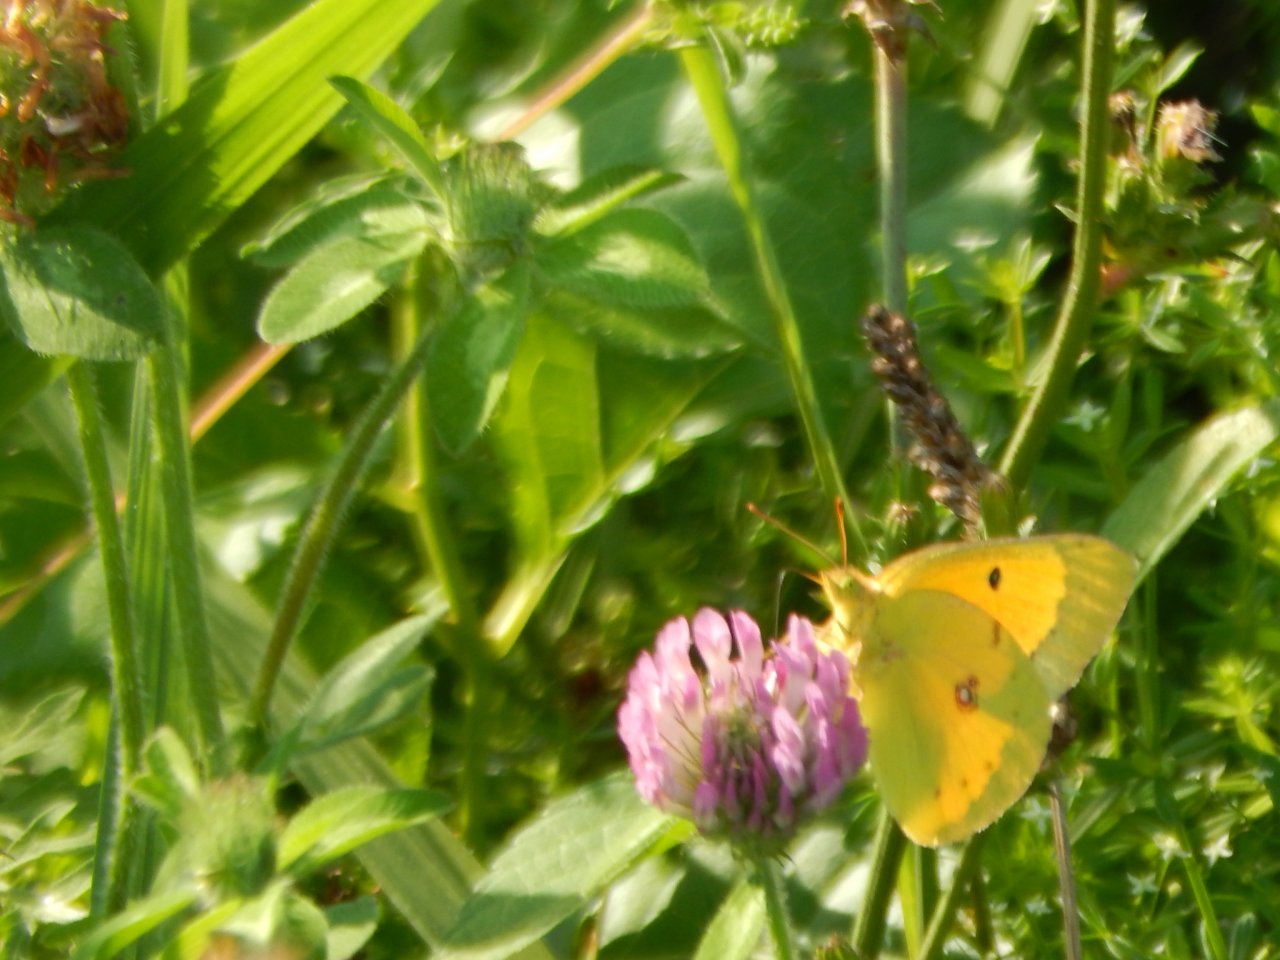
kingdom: Animalia
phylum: Arthropoda
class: Insecta
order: Lepidoptera
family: Pieridae
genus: Colias
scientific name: Colias eurytheme
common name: Orange Sulphur
